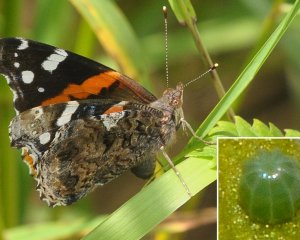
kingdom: Animalia
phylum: Arthropoda
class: Insecta
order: Lepidoptera
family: Nymphalidae
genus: Vanessa
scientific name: Vanessa atalanta
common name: Red Admiral
